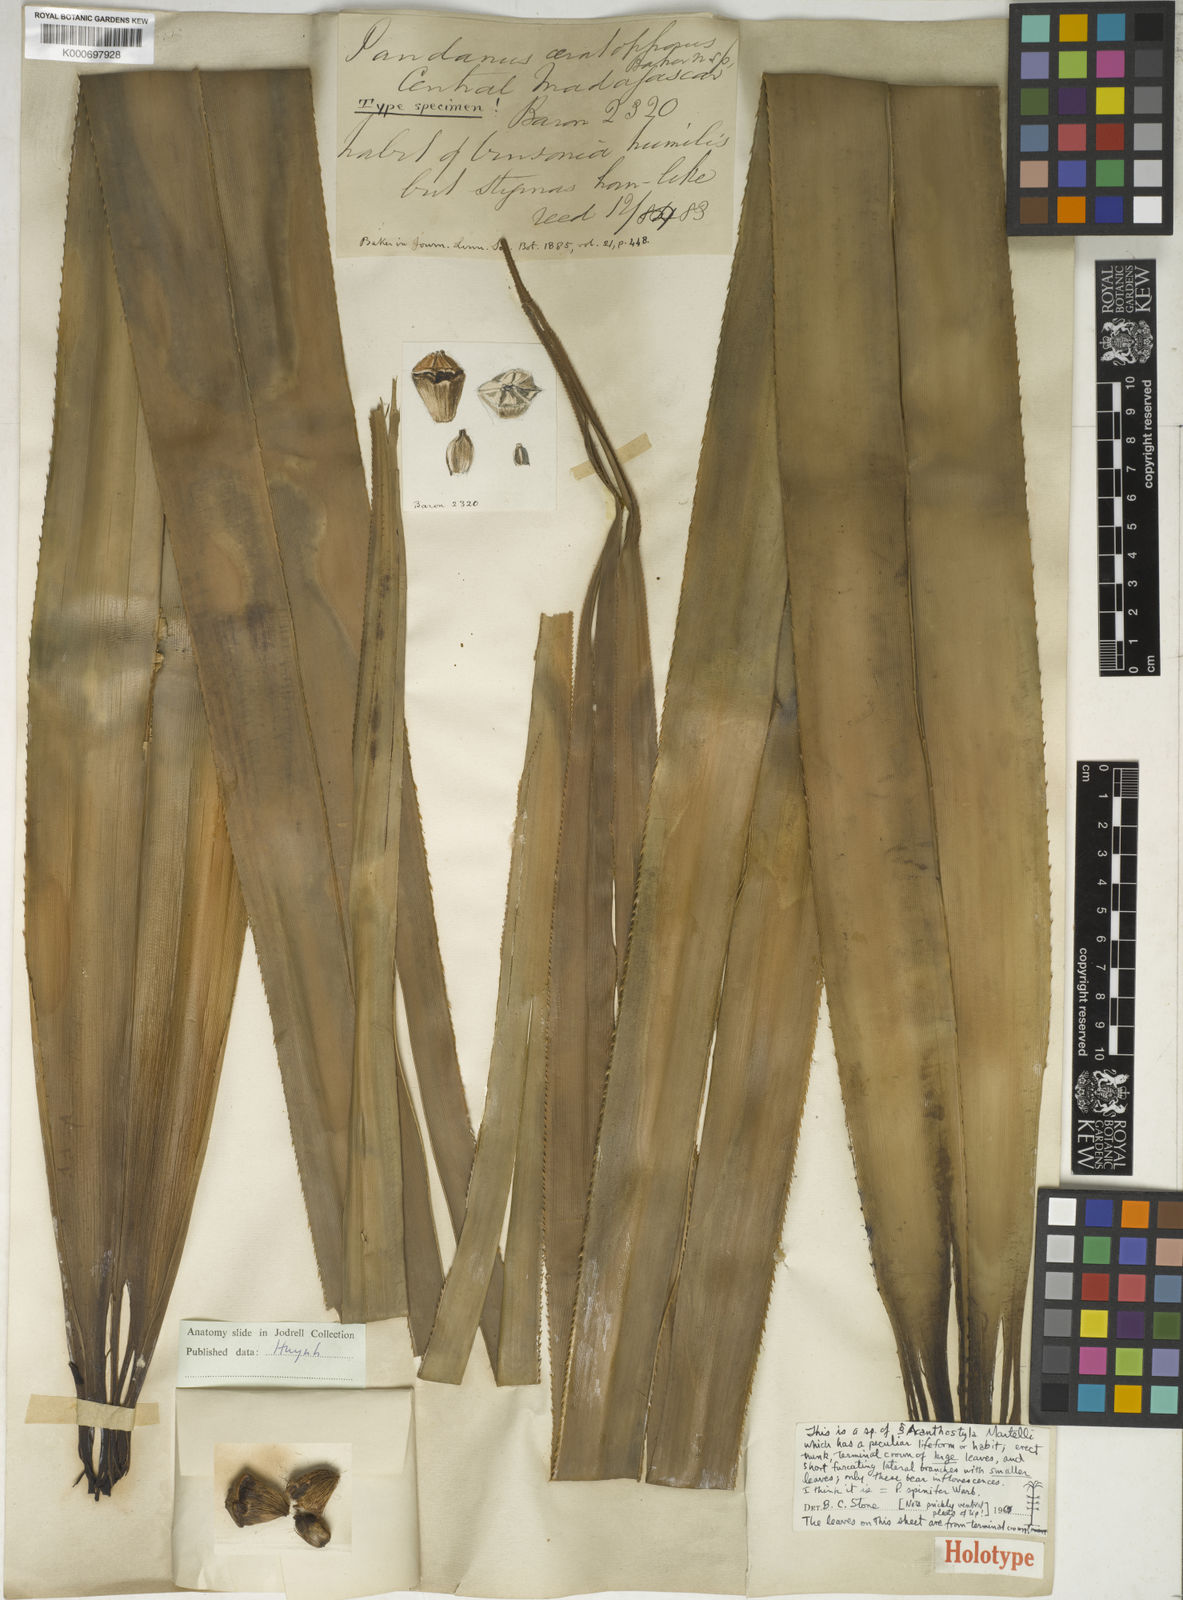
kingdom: Plantae
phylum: Tracheophyta
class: Liliopsida
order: Pandanales
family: Pandanaceae
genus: Pandanus
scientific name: Pandanus muricatus
